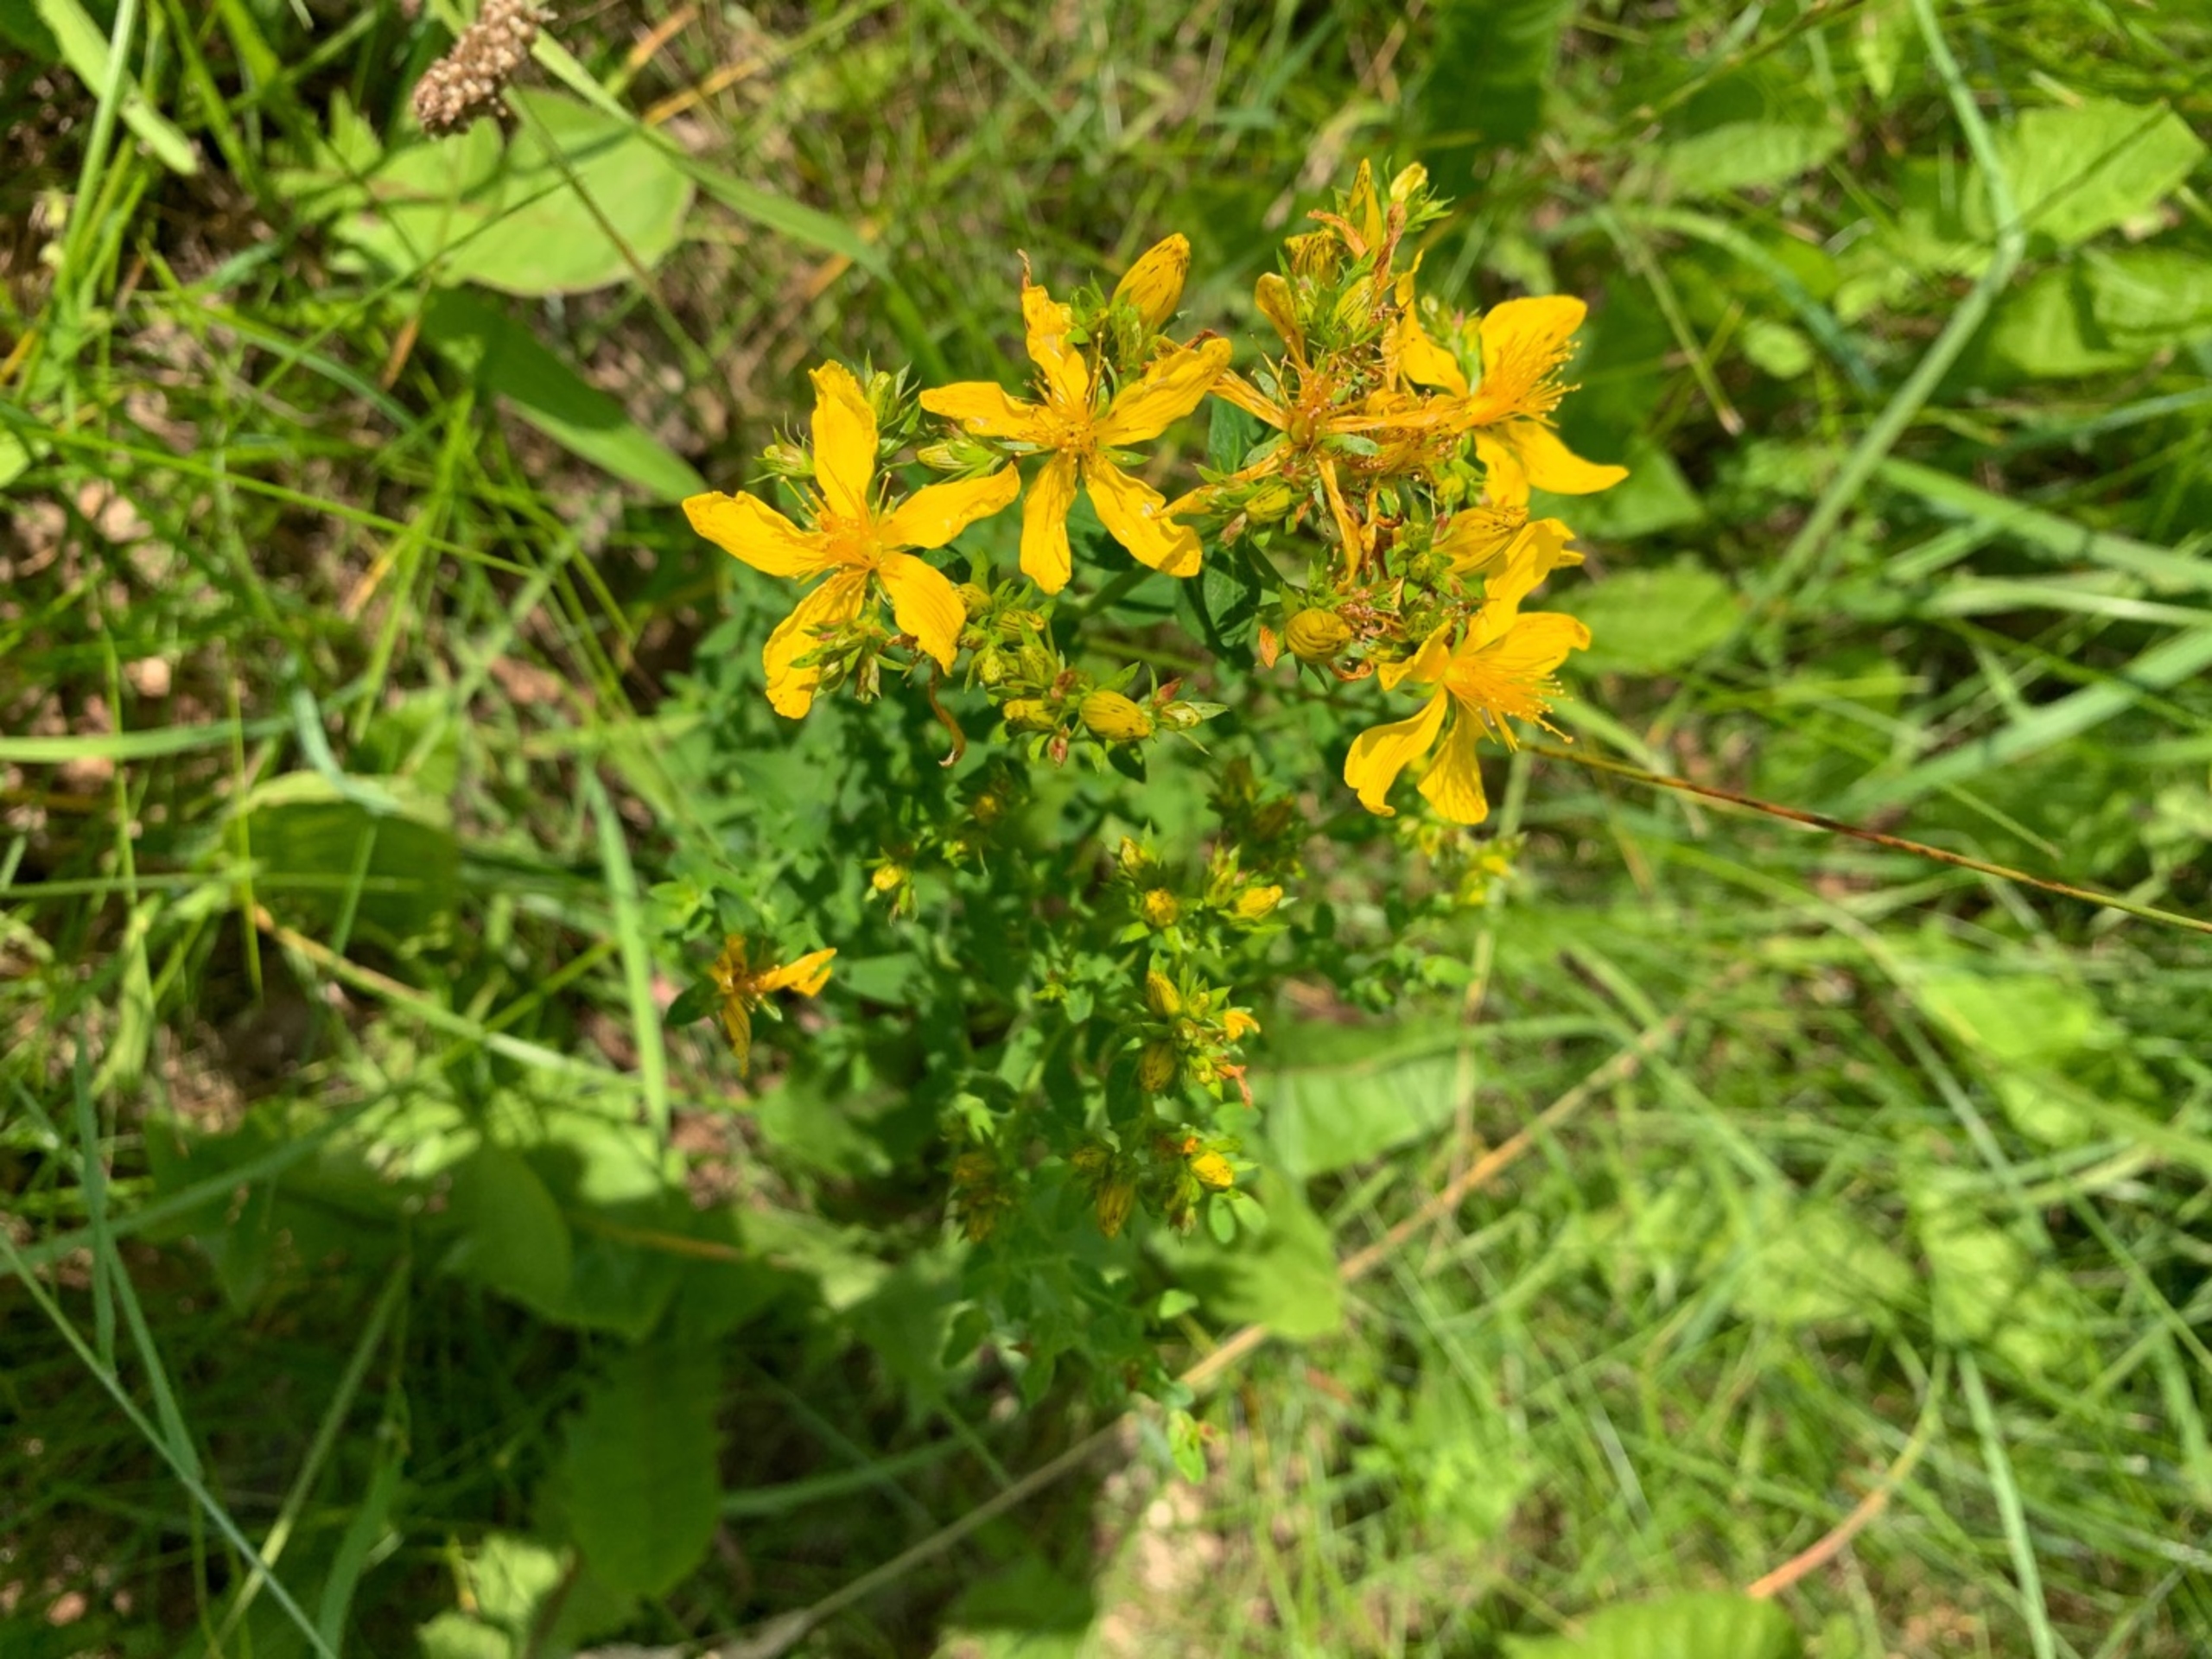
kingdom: Plantae
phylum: Tracheophyta
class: Magnoliopsida
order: Malpighiales
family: Hypericaceae
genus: Hypericum
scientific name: Hypericum perforatum
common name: Prikbladet perikon
